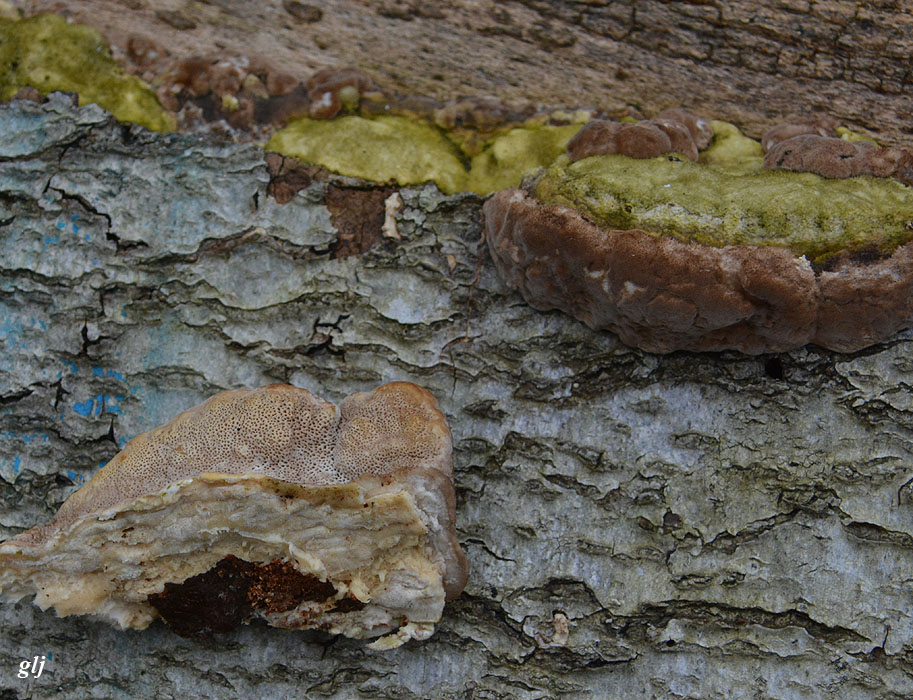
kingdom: Fungi
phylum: Basidiomycota
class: Agaricomycetes
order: Polyporales
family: Polyporaceae
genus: Trametes
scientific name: Trametes hirsuta
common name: håret læderporesvamp
